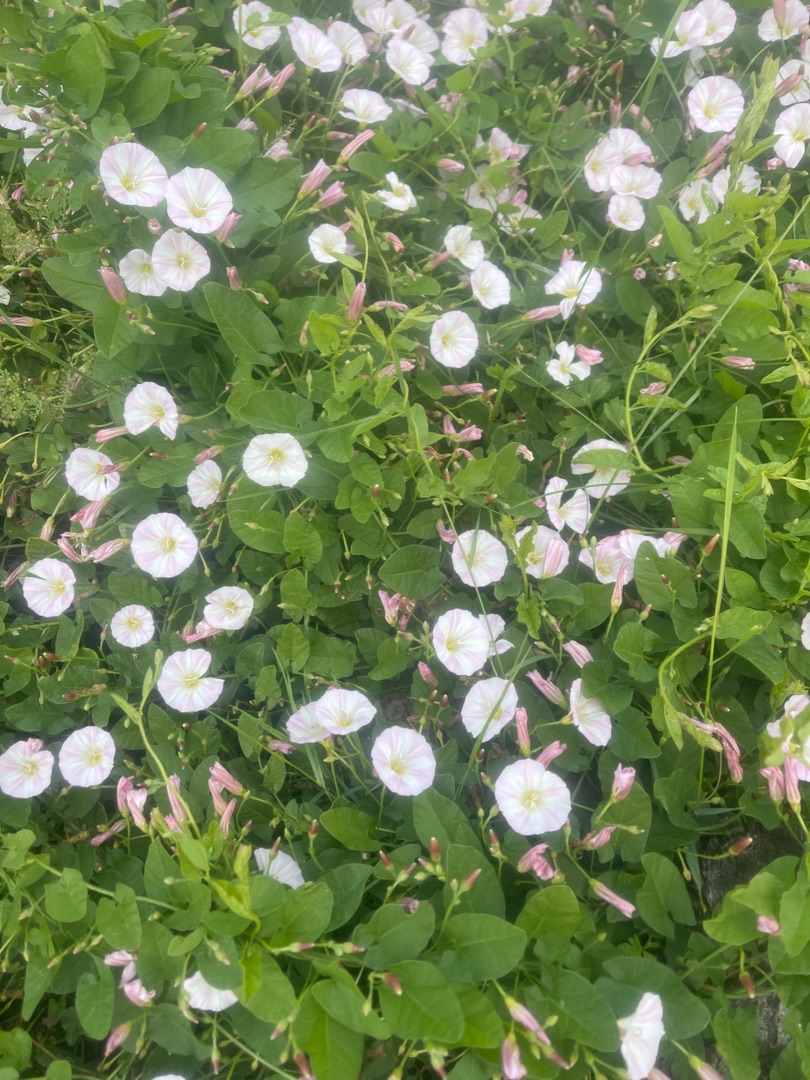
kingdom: Plantae
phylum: Tracheophyta
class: Magnoliopsida
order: Solanales
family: Convolvulaceae
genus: Convolvulus
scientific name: Convolvulus arvensis
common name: Ager-snerle
